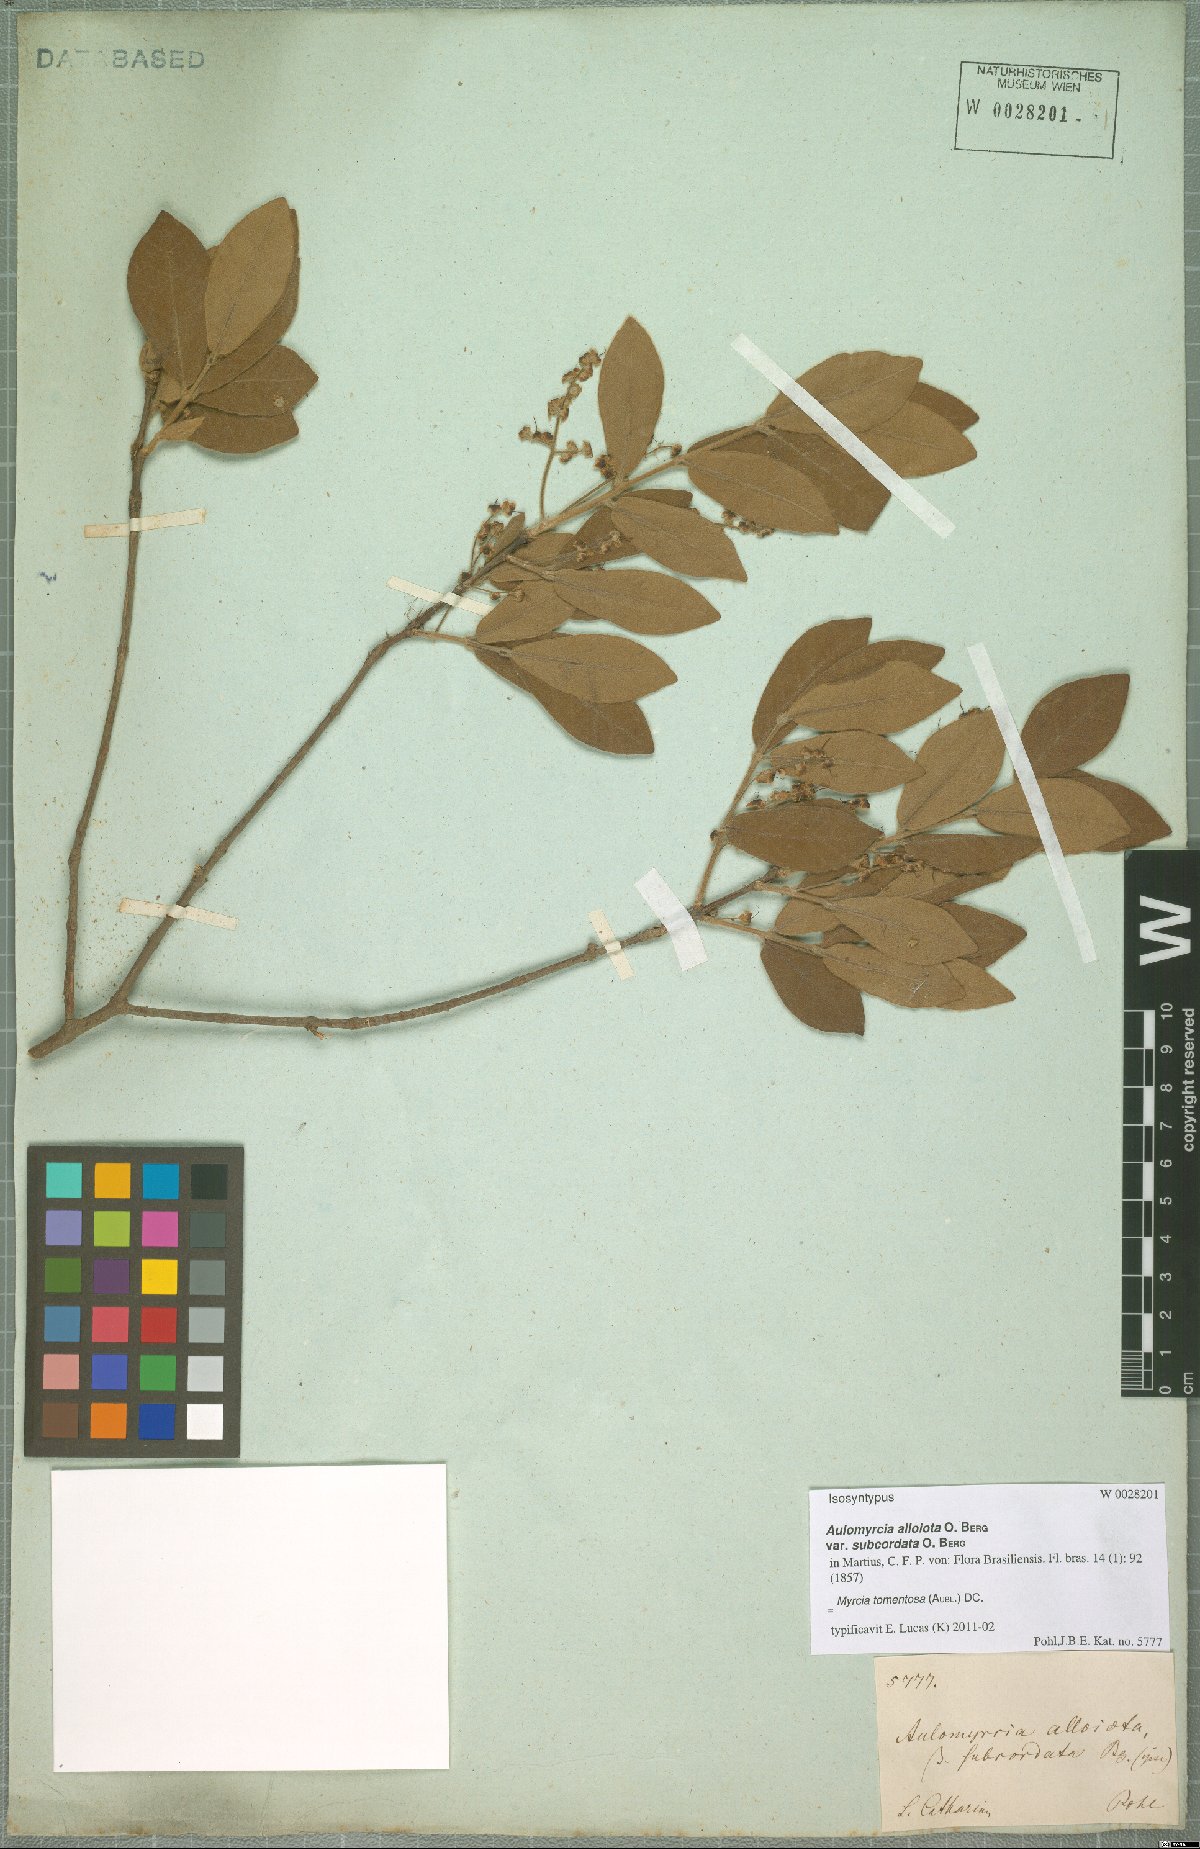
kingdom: Plantae
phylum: Tracheophyta
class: Magnoliopsida
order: Myrtales
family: Myrtaceae
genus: Myrcia
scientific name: Myrcia tomentosa
